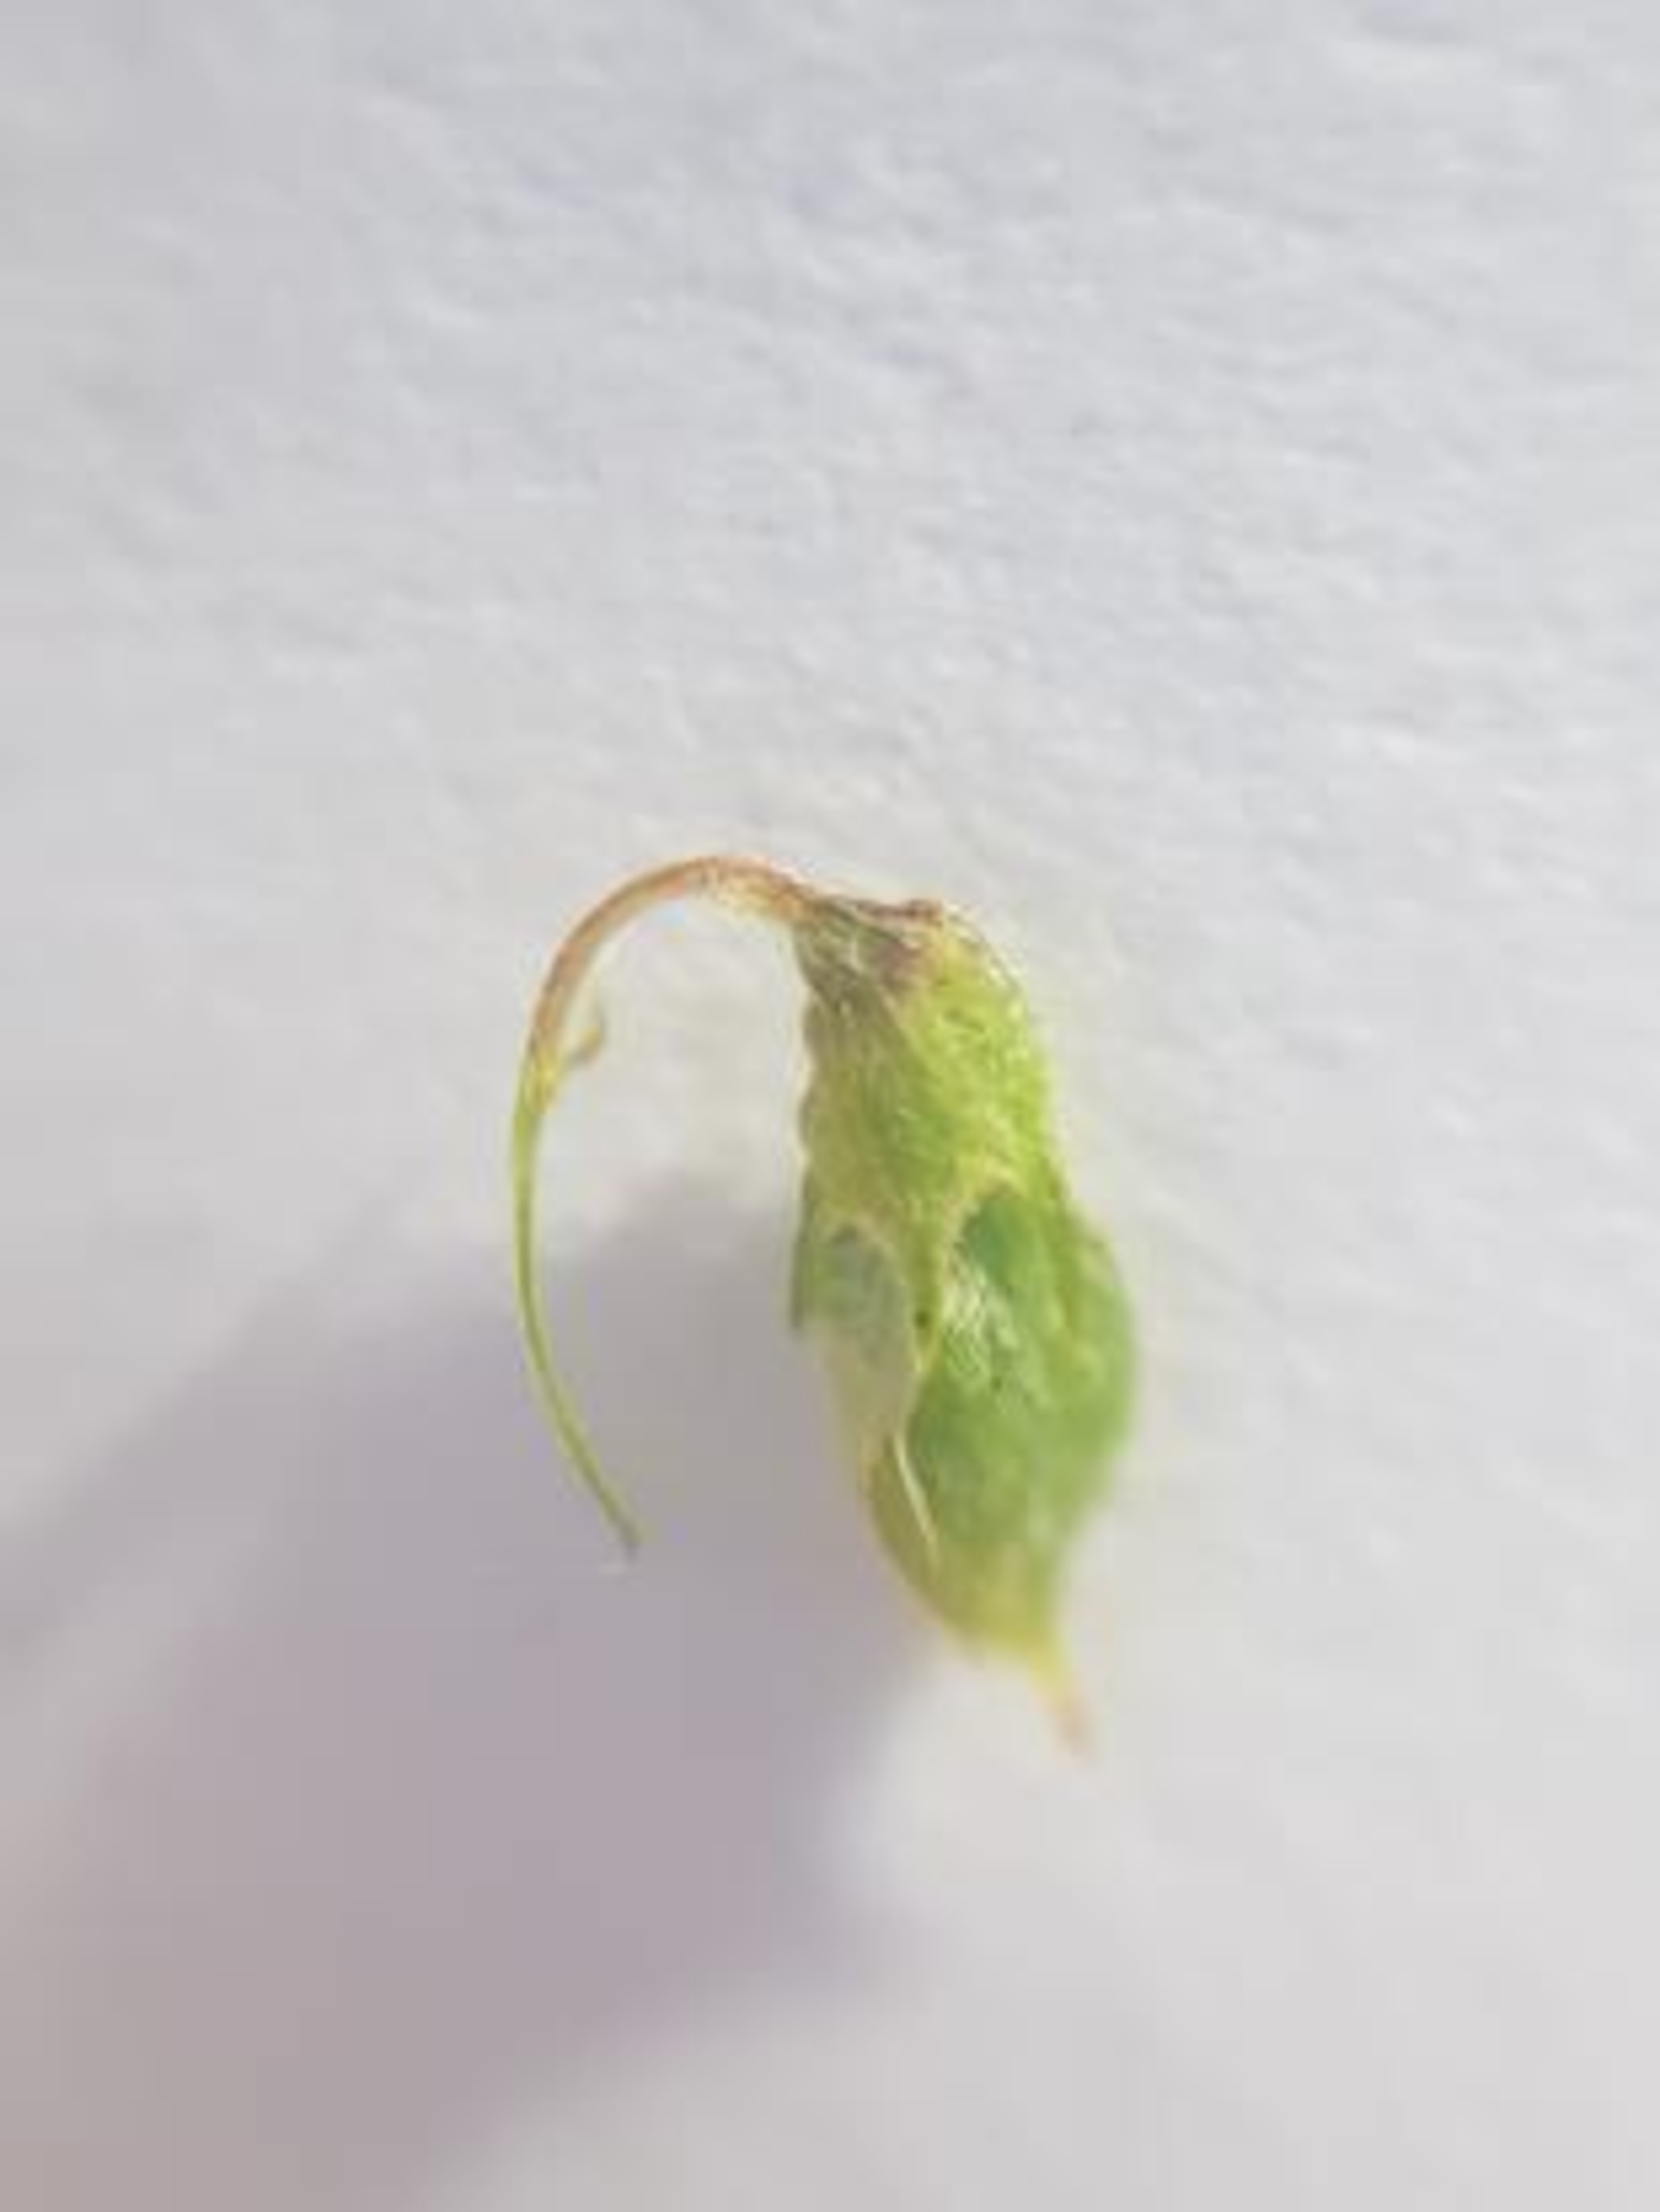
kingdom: Plantae
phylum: Tracheophyta
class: Magnoliopsida
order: Fabales
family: Fabaceae
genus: Melilotus
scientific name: Melilotus altissimus
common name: Høj stenkløver
